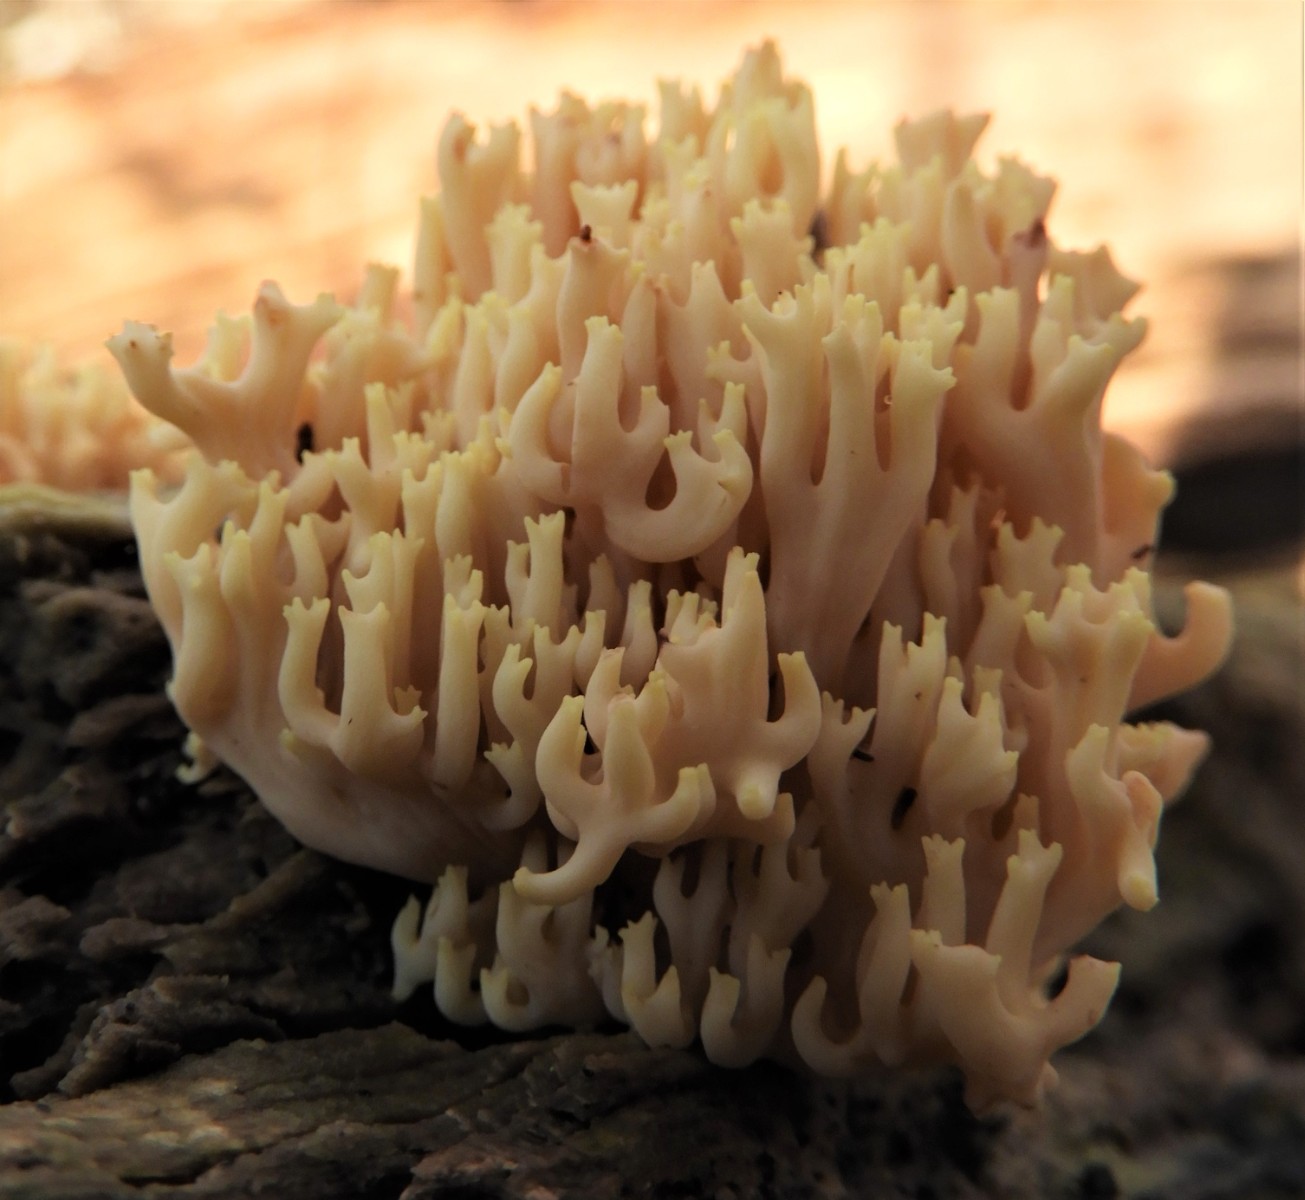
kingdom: Fungi
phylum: Basidiomycota
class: Agaricomycetes
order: Gomphales
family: Gomphaceae
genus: Ramaria
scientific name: Ramaria stricta
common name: rank koralsvamp
